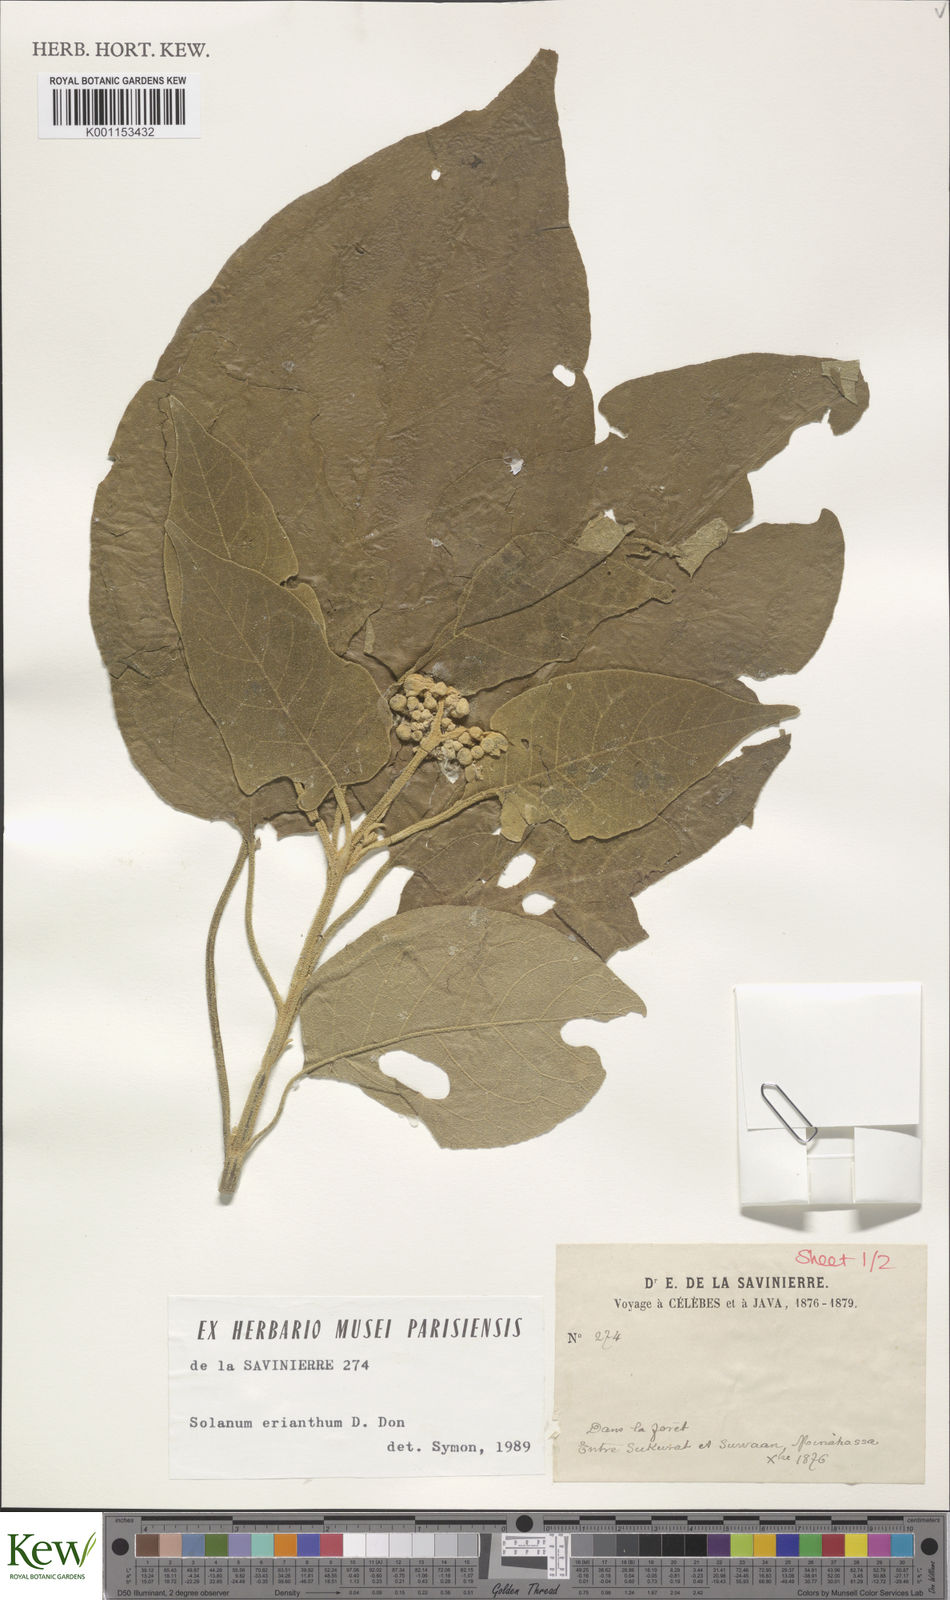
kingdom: Plantae
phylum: Tracheophyta
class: Magnoliopsida
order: Solanales
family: Solanaceae
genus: Solanum
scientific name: Solanum erianthum
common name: Tobacco-tree
